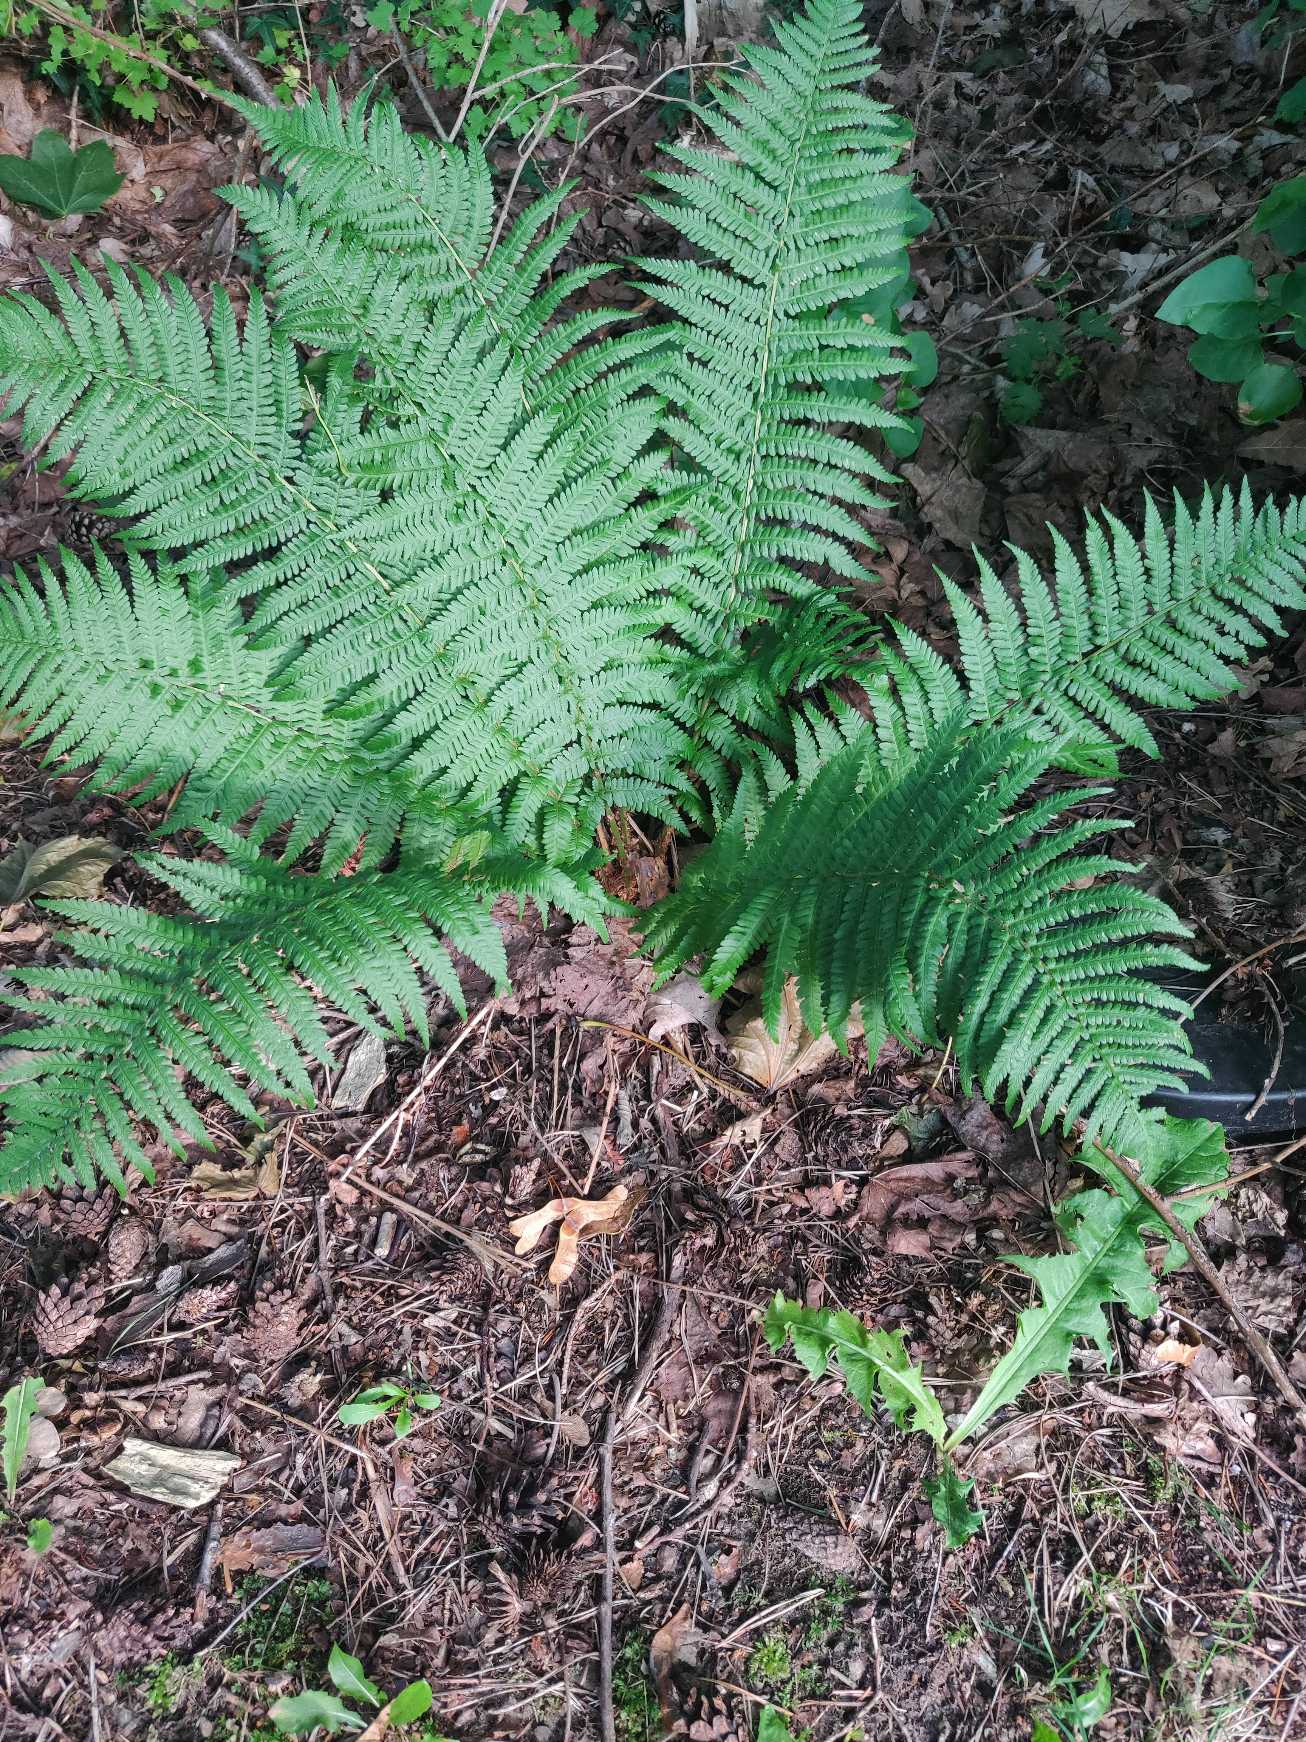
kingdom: Plantae
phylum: Tracheophyta
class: Polypodiopsida
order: Polypodiales
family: Dryopteridaceae
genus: Dryopteris
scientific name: Dryopteris filix-mas
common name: Almindelig mangeløv
